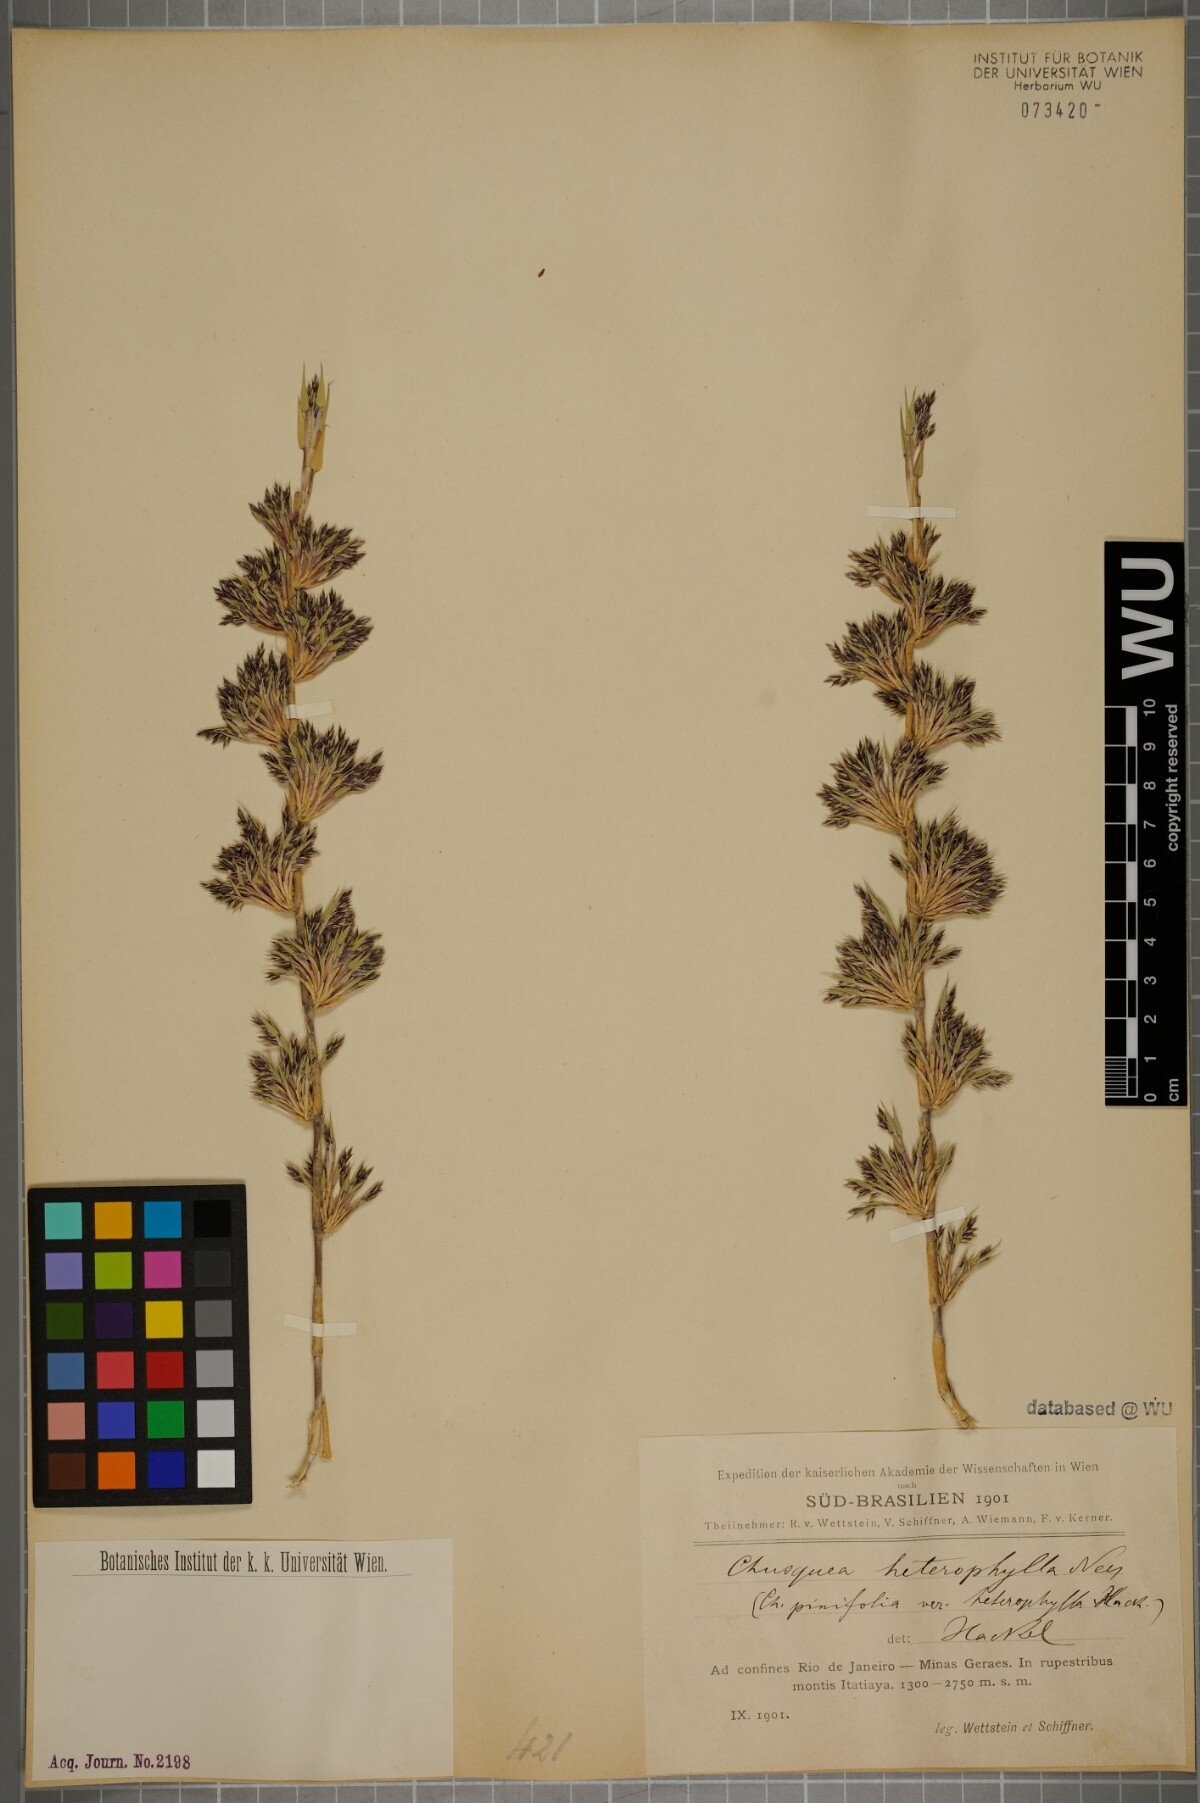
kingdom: Plantae
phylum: Tracheophyta
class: Liliopsida
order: Poales
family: Poaceae
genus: Chusquea
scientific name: Chusquea heterophylla
